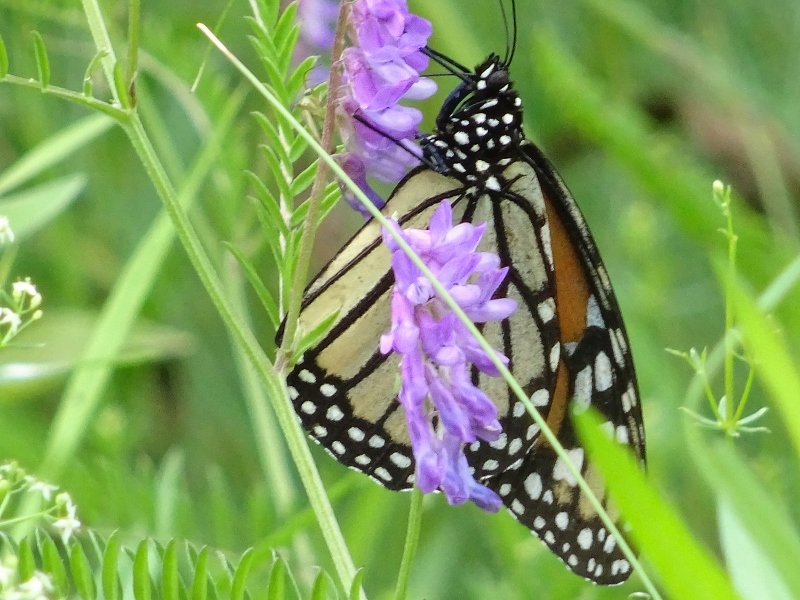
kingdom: Animalia
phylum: Arthropoda
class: Insecta
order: Lepidoptera
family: Nymphalidae
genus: Danaus
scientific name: Danaus plexippus
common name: Monarch
